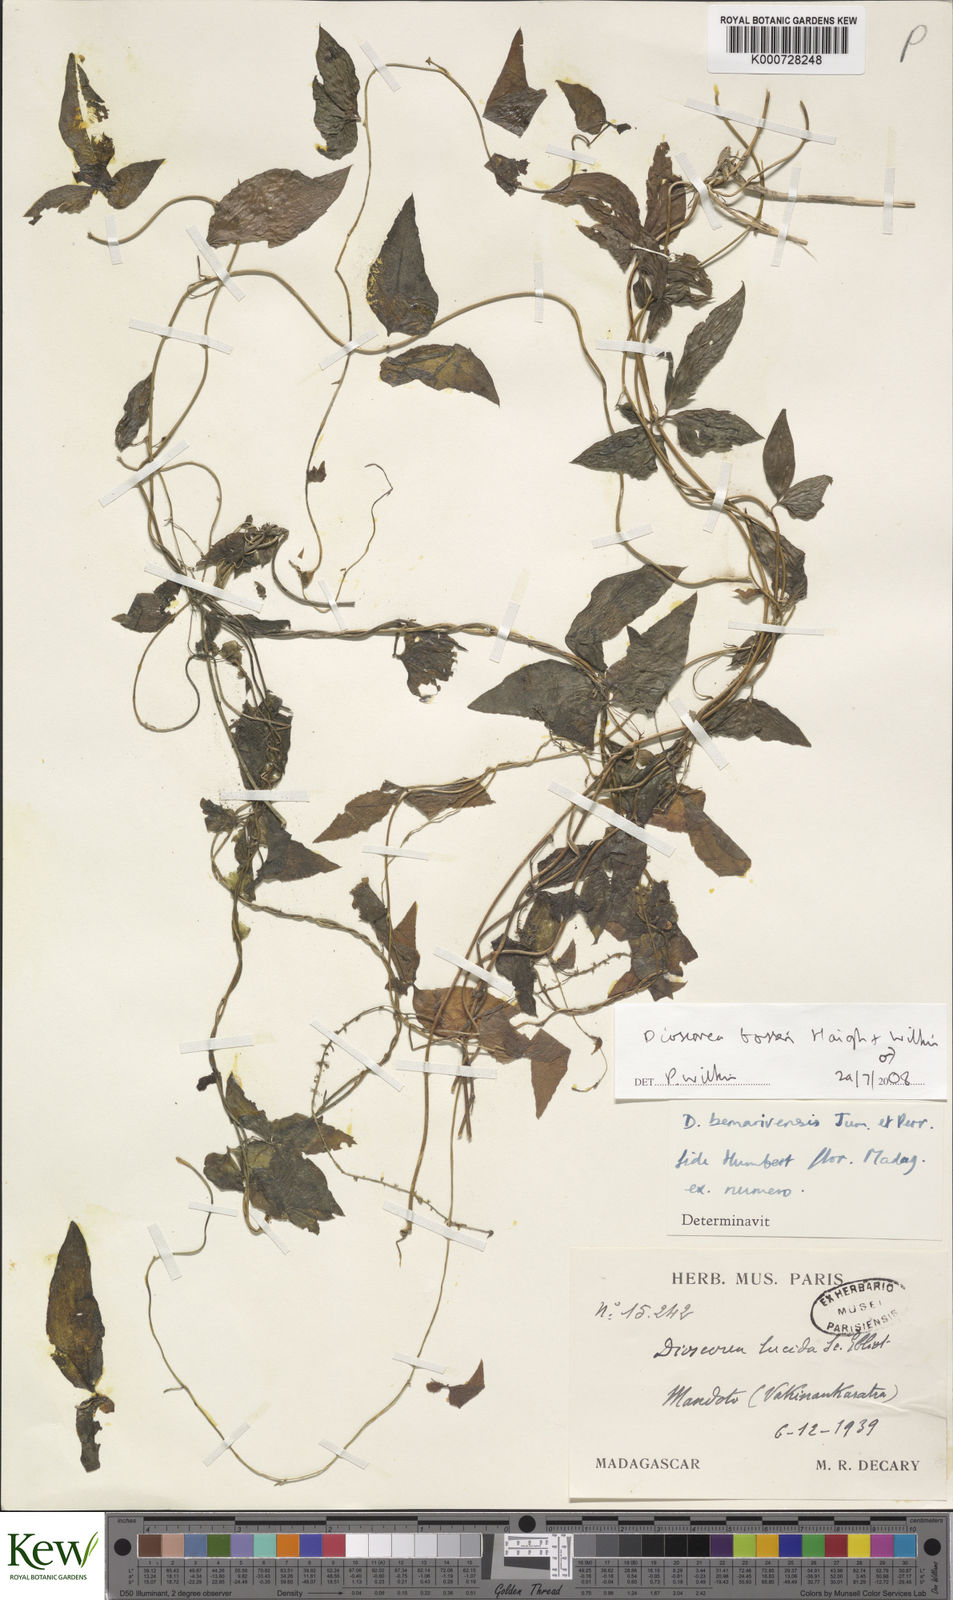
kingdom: Plantae
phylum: Tracheophyta
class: Liliopsida
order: Dioscoreales
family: Dioscoreaceae
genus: Dioscorea
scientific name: Dioscorea bosseri
